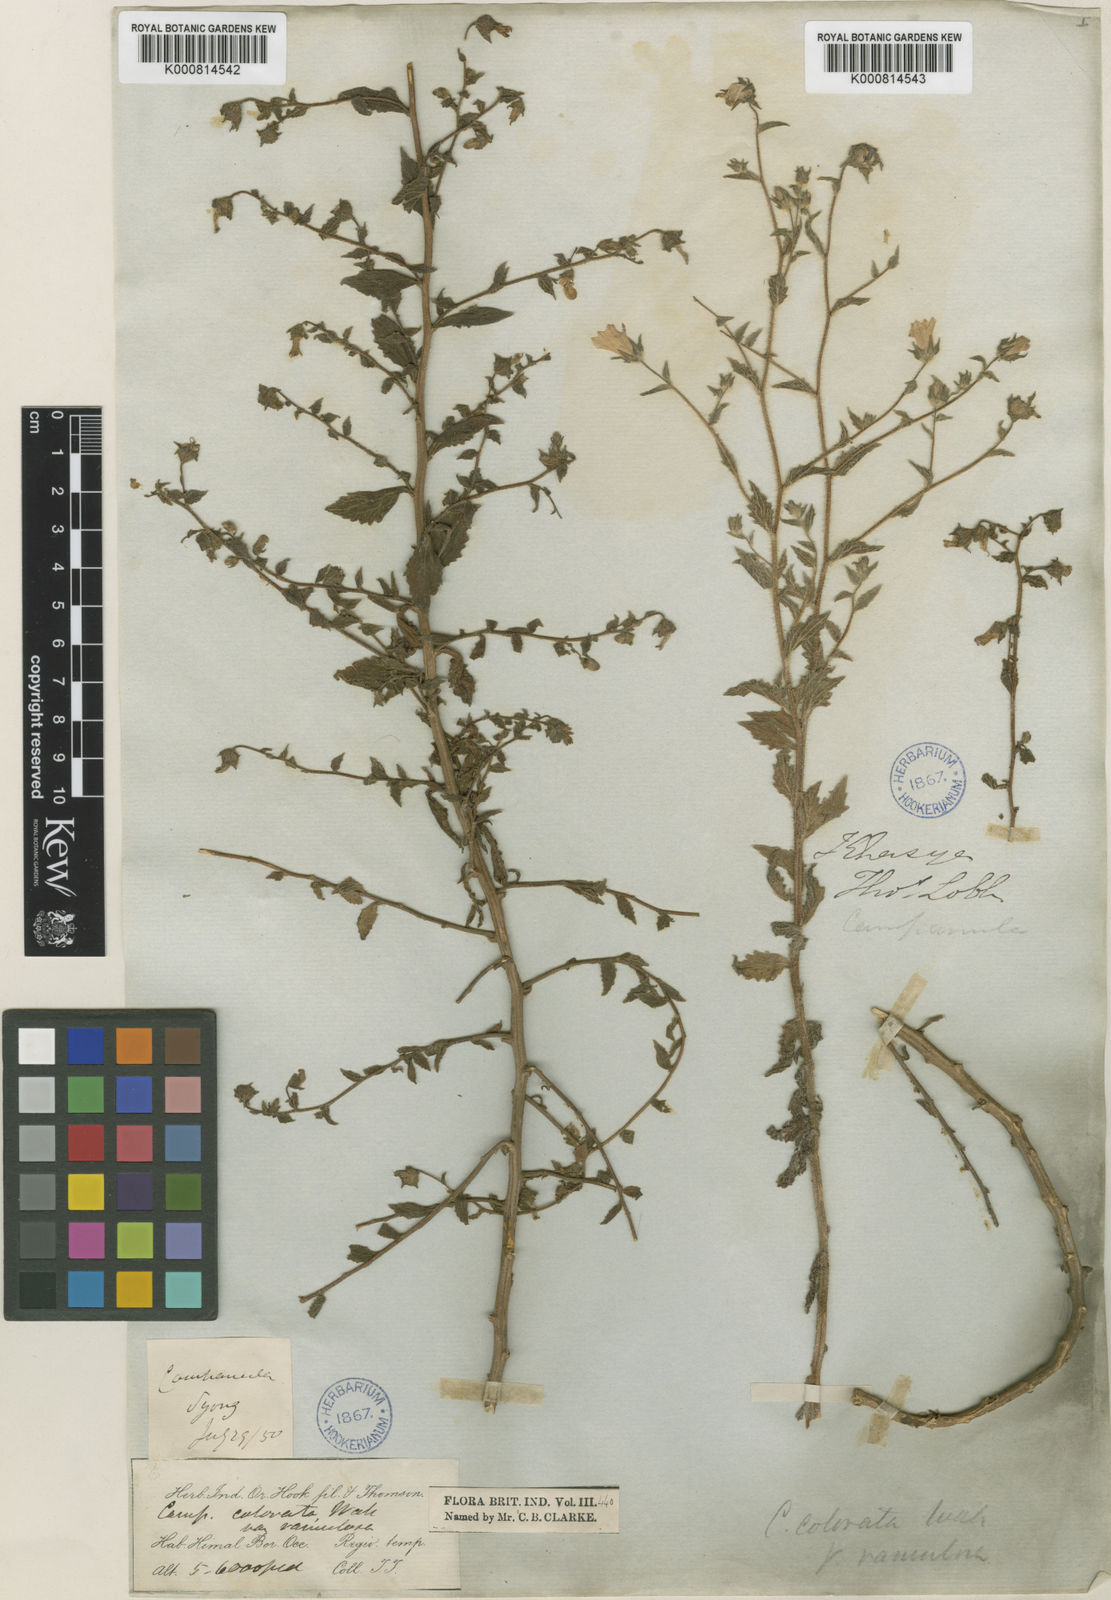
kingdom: Plantae
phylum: Tracheophyta
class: Magnoliopsida
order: Asterales
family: Campanulaceae
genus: Campanula
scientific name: Campanula pallida
